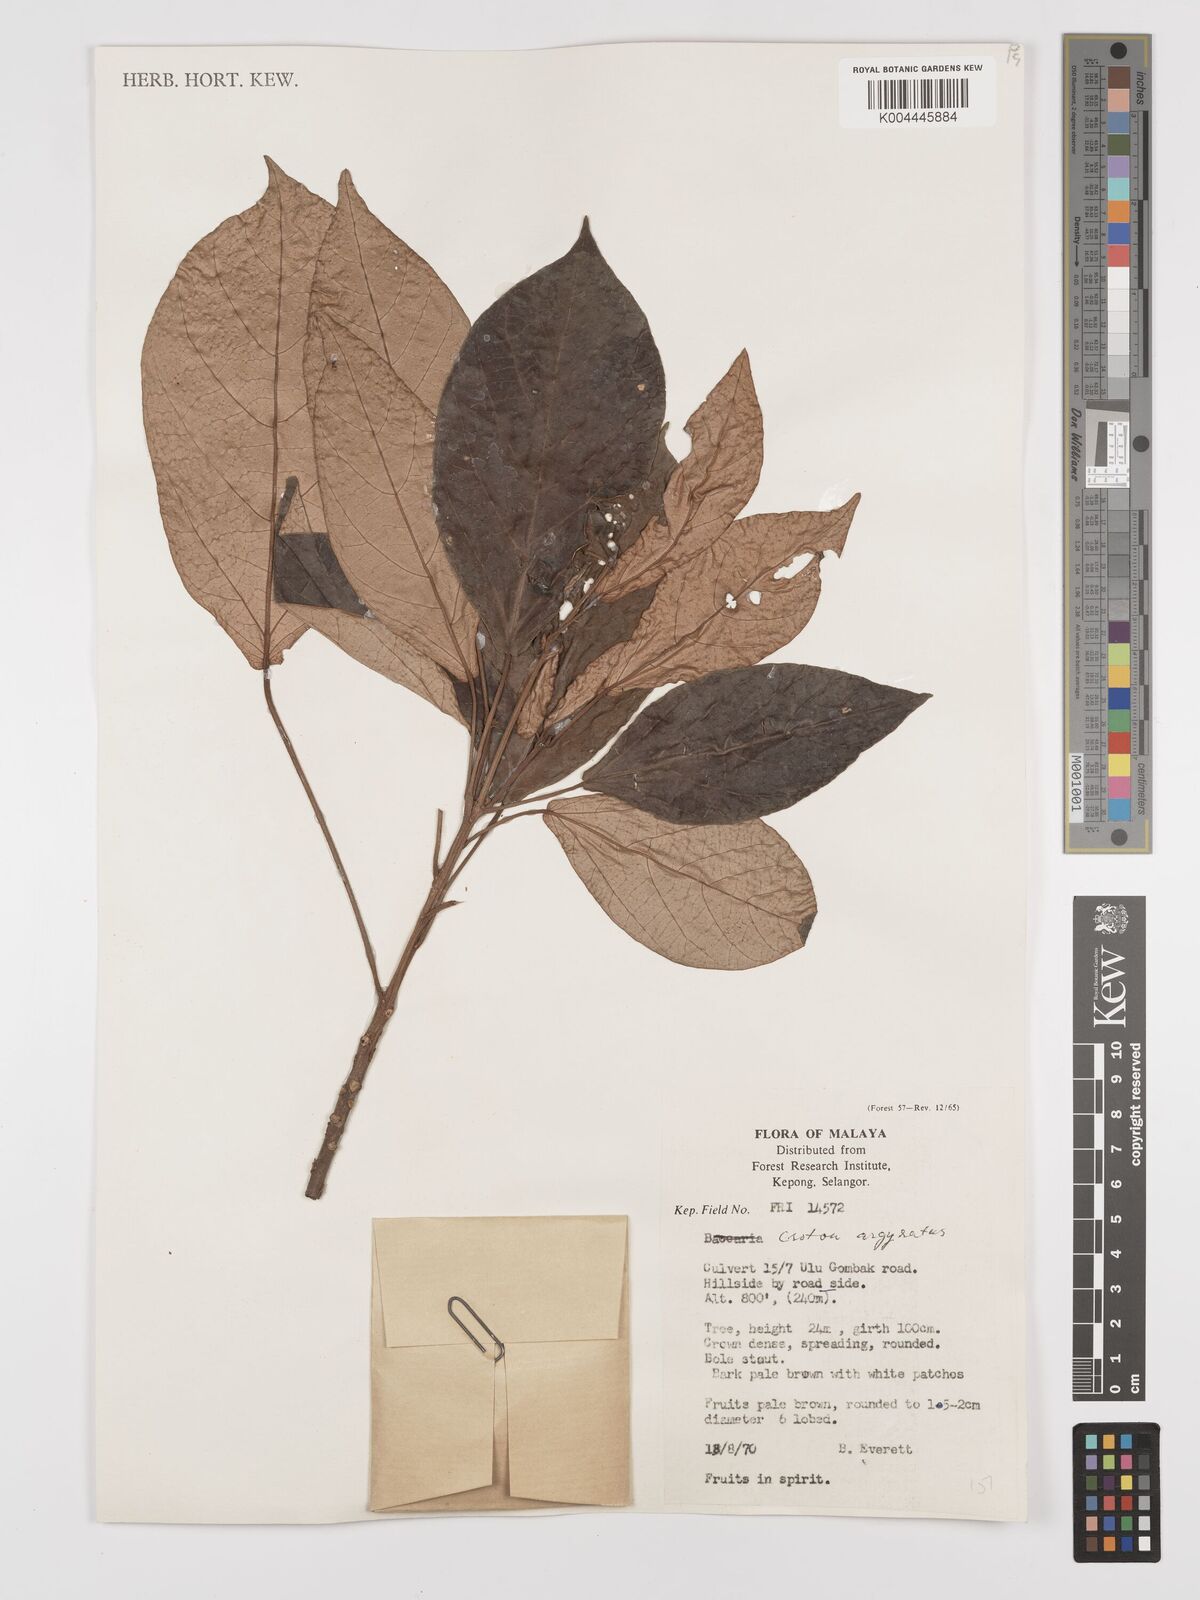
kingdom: Plantae
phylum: Tracheophyta
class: Magnoliopsida
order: Malpighiales
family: Euphorbiaceae
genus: Croton
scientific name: Croton argyratus
